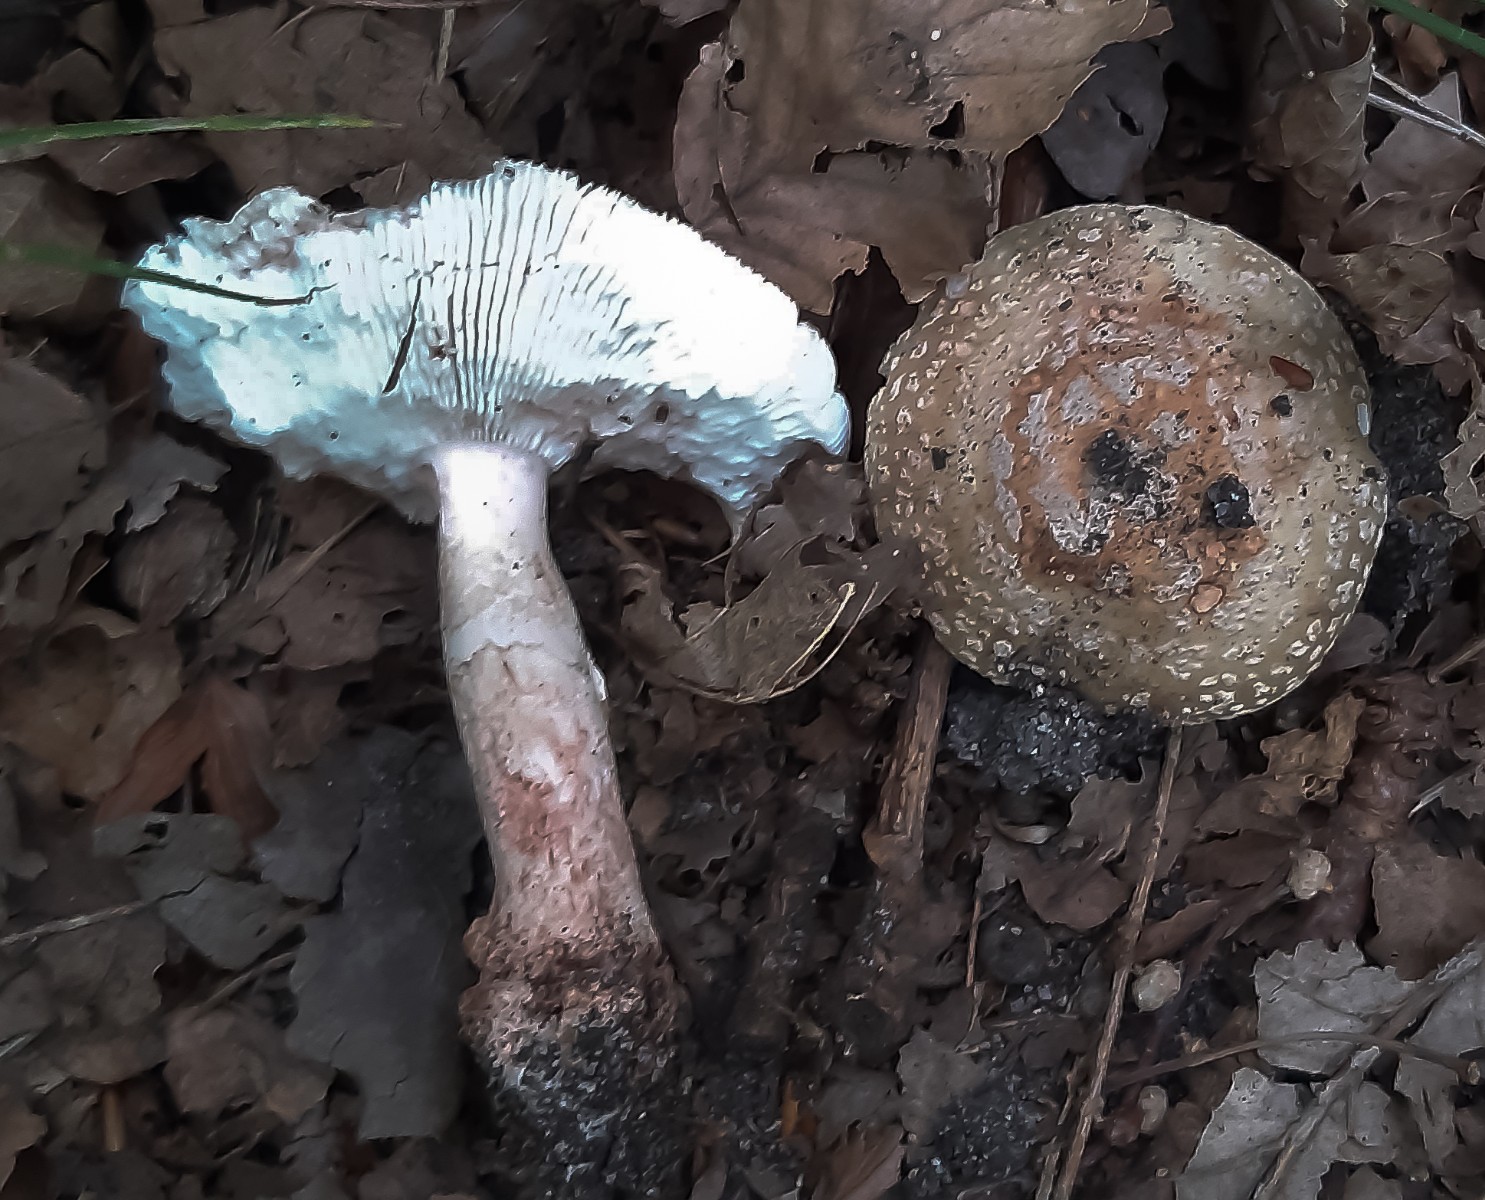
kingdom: Fungi
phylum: Basidiomycota
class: Agaricomycetes
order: Agaricales
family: Amanitaceae
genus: Amanita
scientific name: Amanita rubescens
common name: rødmende fluesvamp
